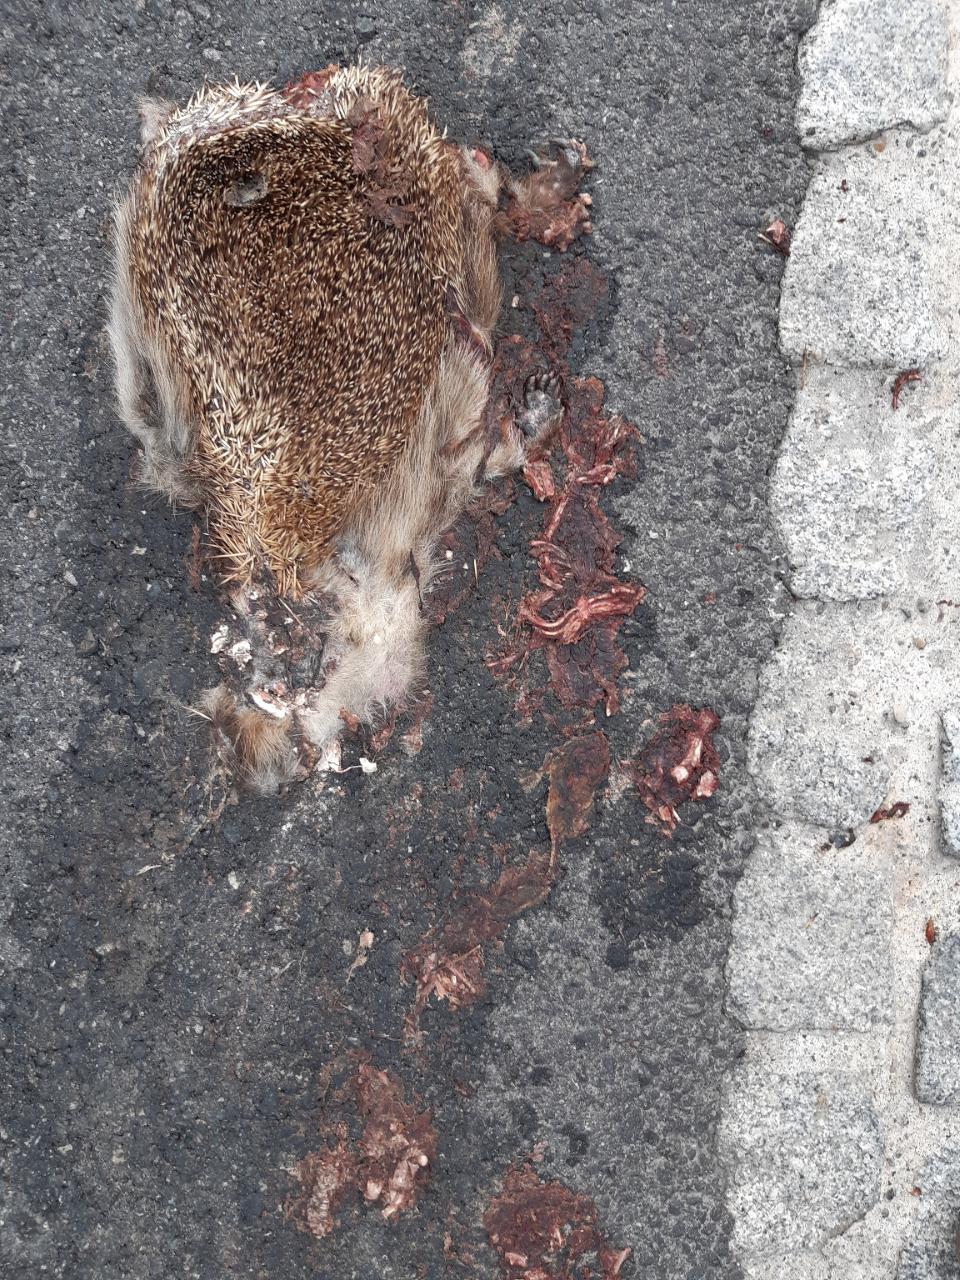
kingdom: Animalia
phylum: Chordata
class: Mammalia
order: Erinaceomorpha
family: Erinaceidae
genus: Erinaceus
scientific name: Erinaceus
